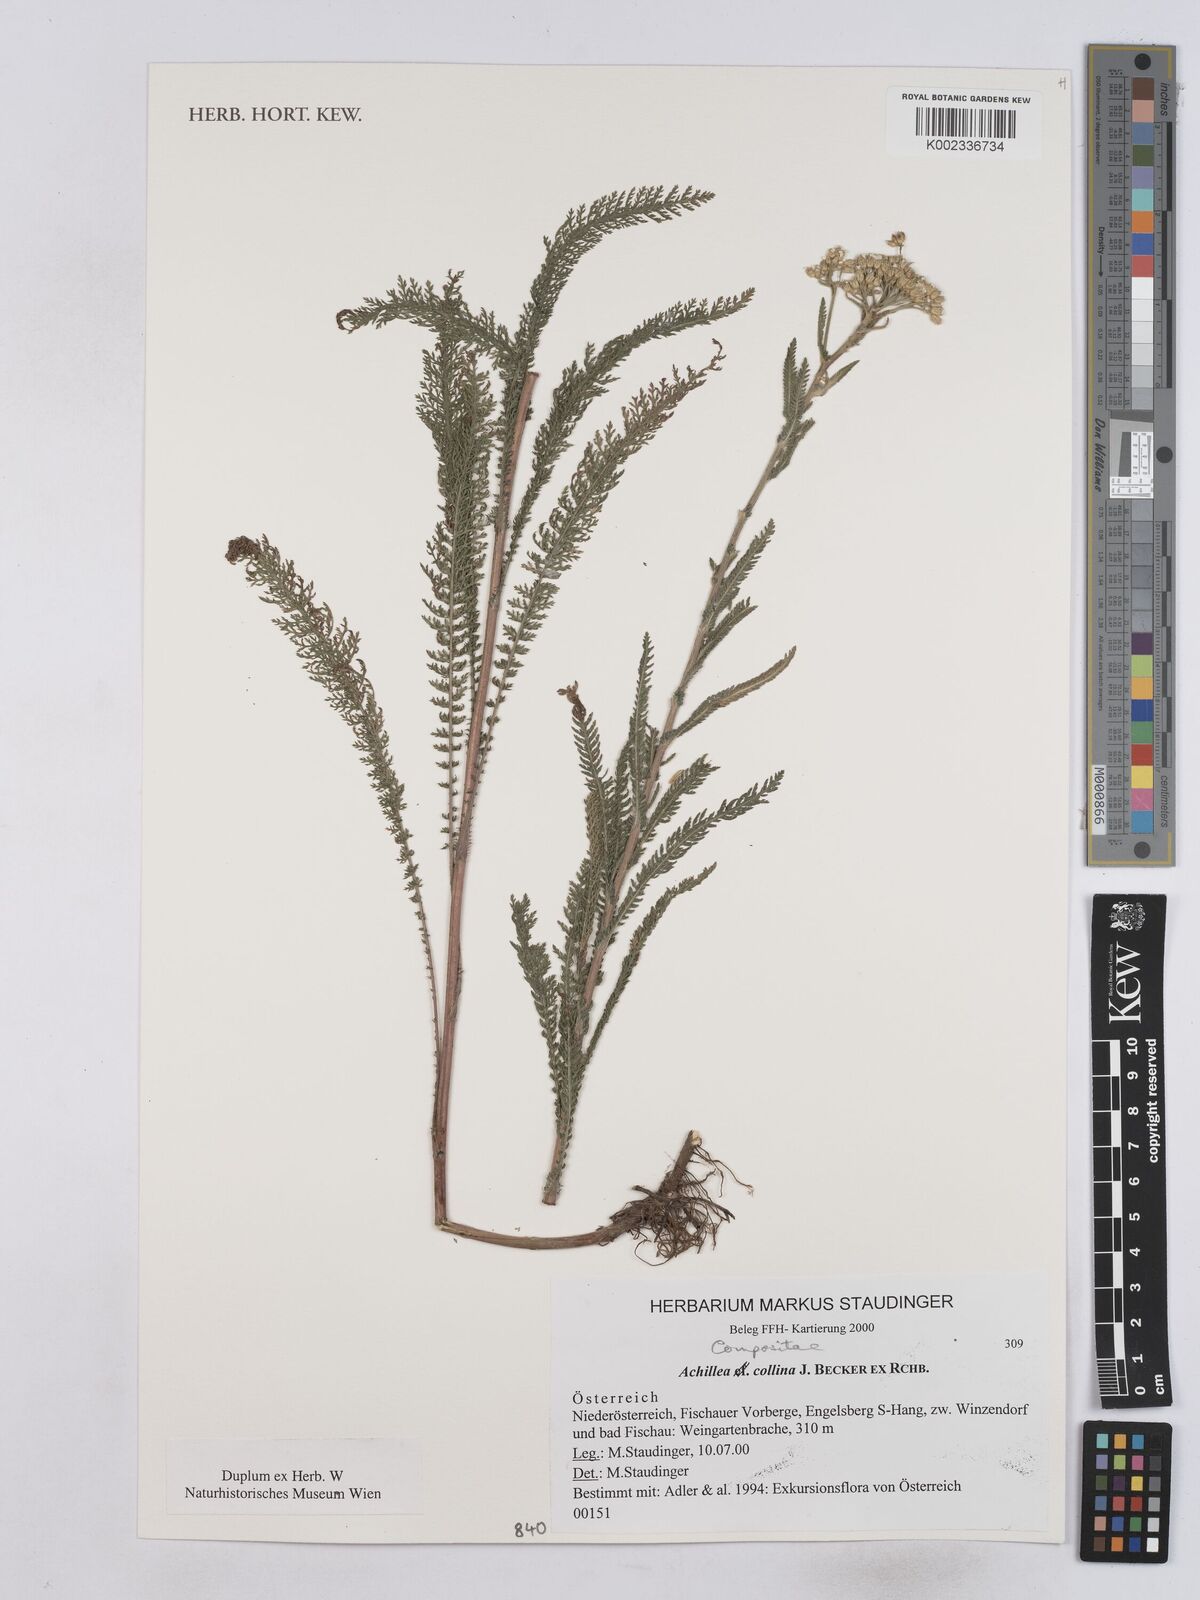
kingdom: Plantae
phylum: Tracheophyta
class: Magnoliopsida
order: Asterales
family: Asteraceae
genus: Achillea
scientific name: Achillea collina
